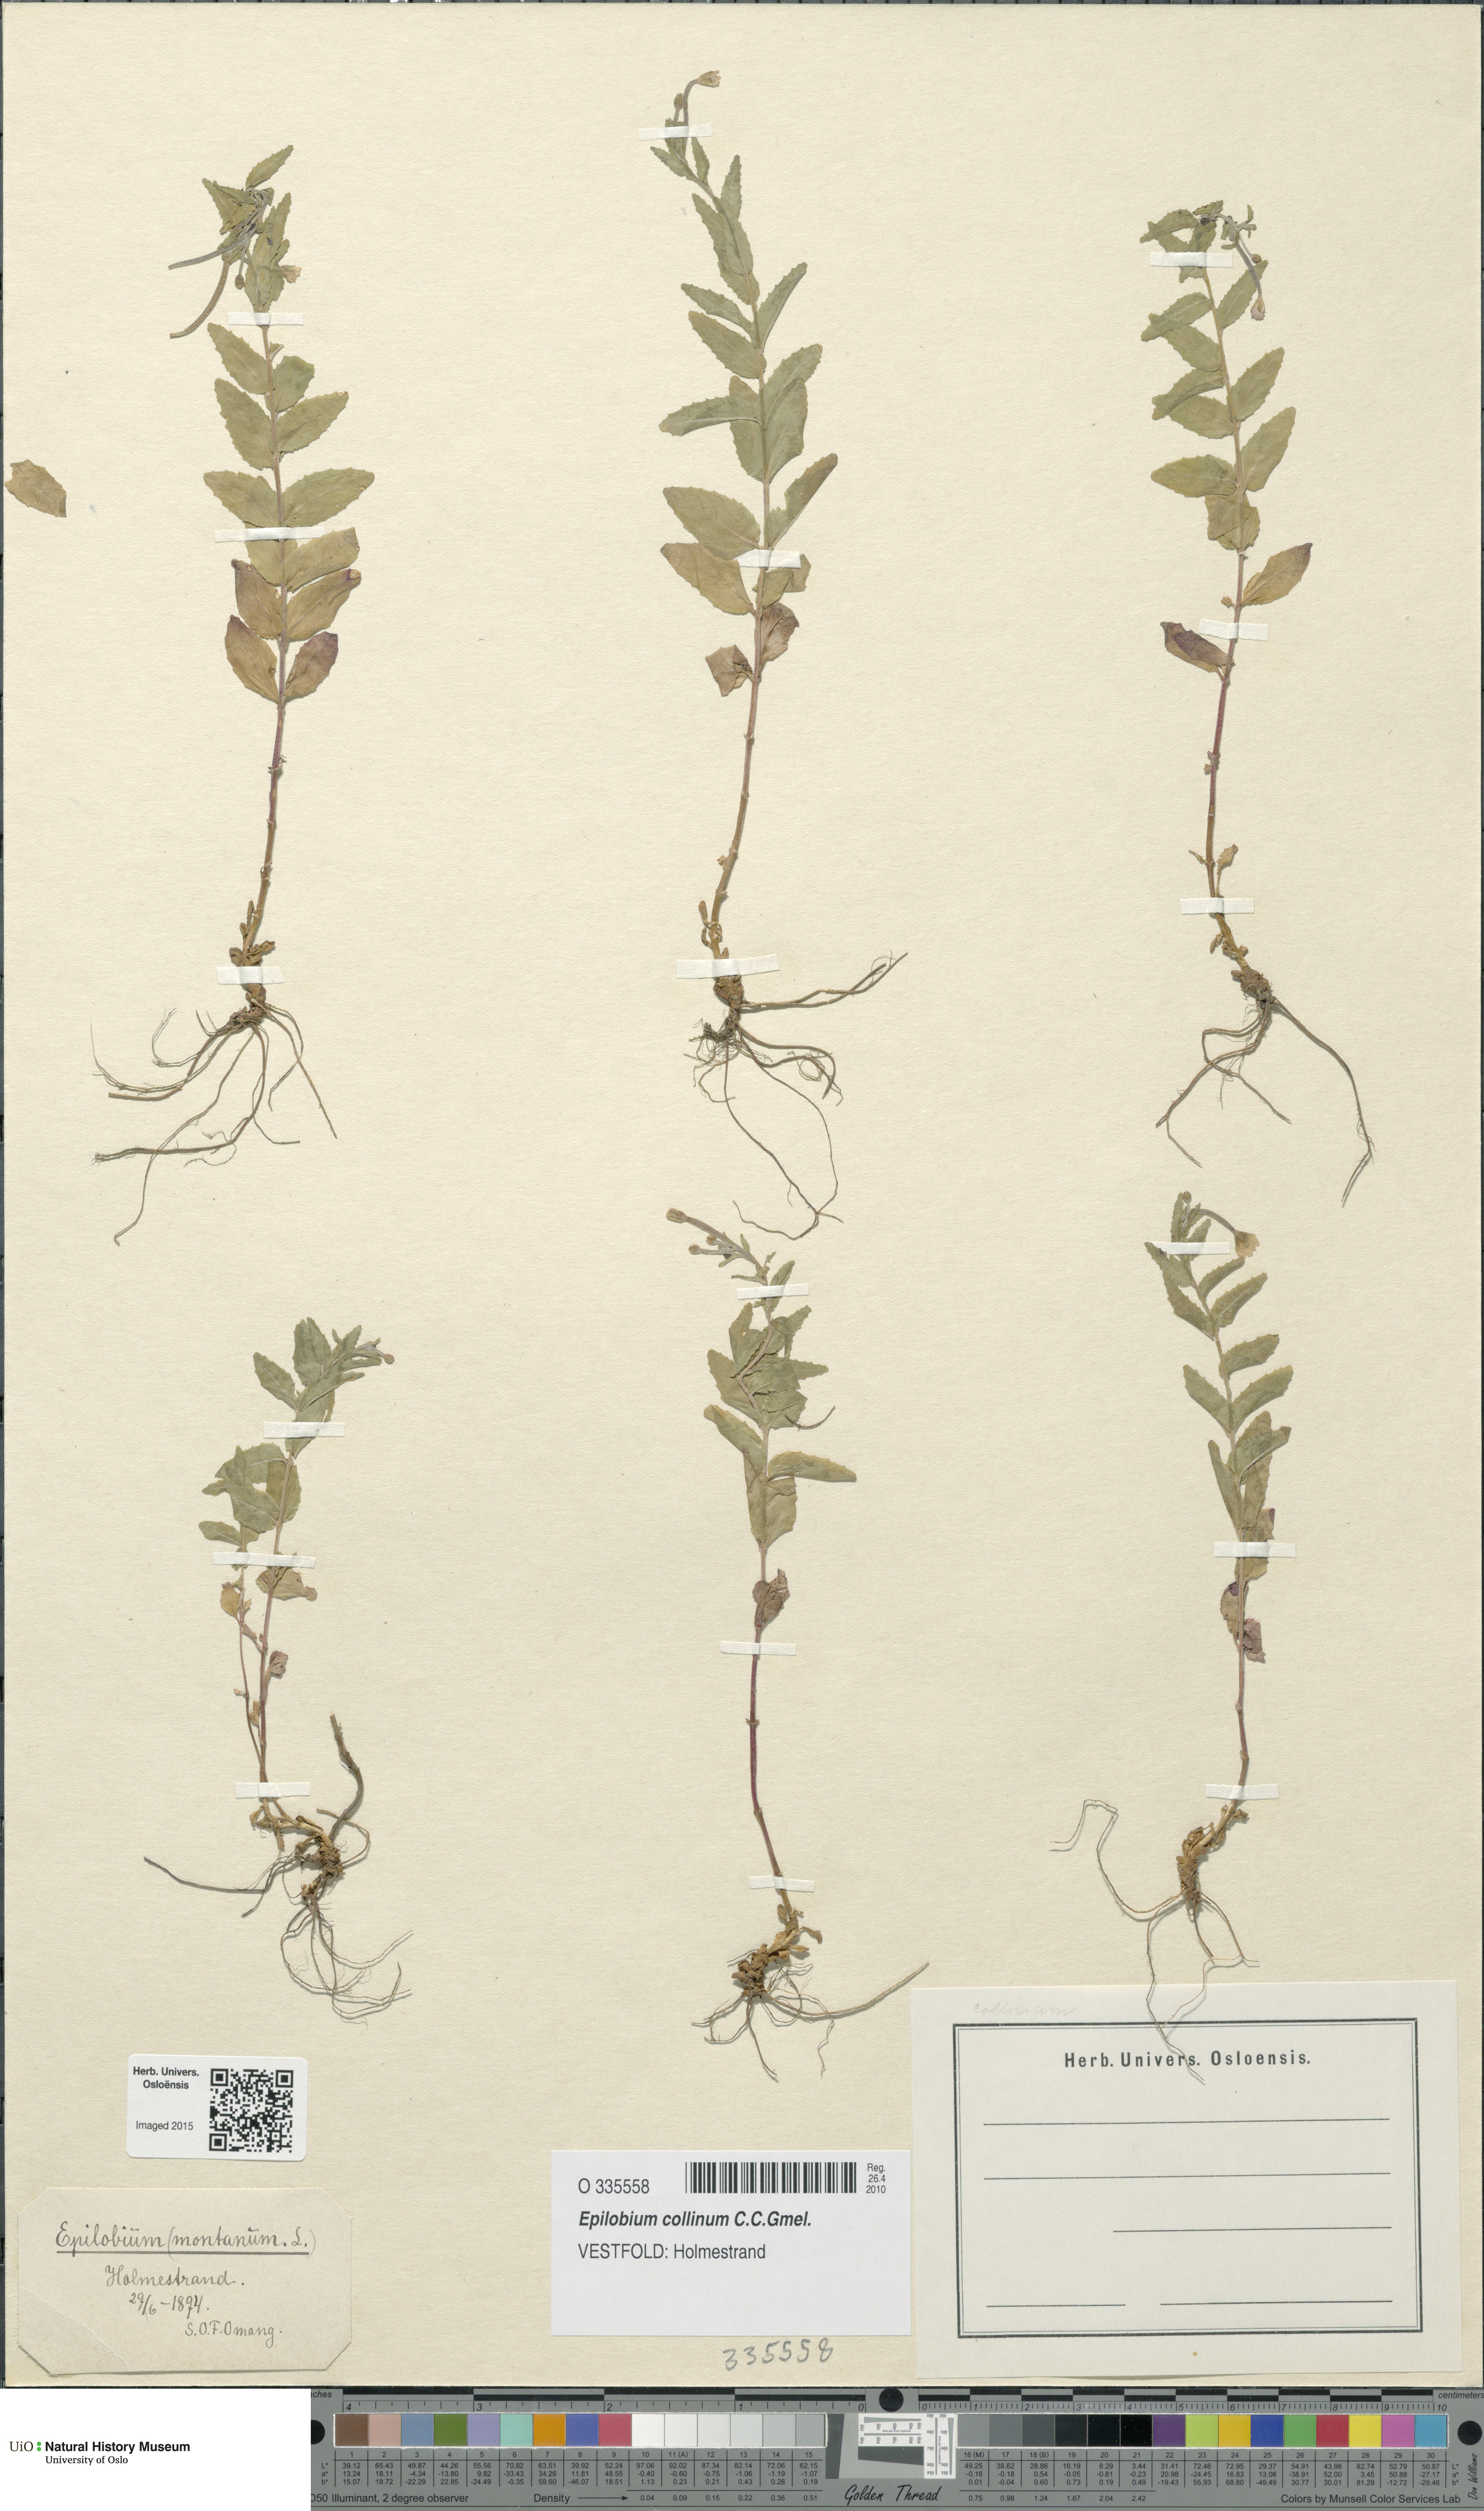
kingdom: Plantae
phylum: Tracheophyta
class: Magnoliopsida
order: Myrtales
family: Onagraceae
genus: Epilobium
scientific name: Epilobium collinum
